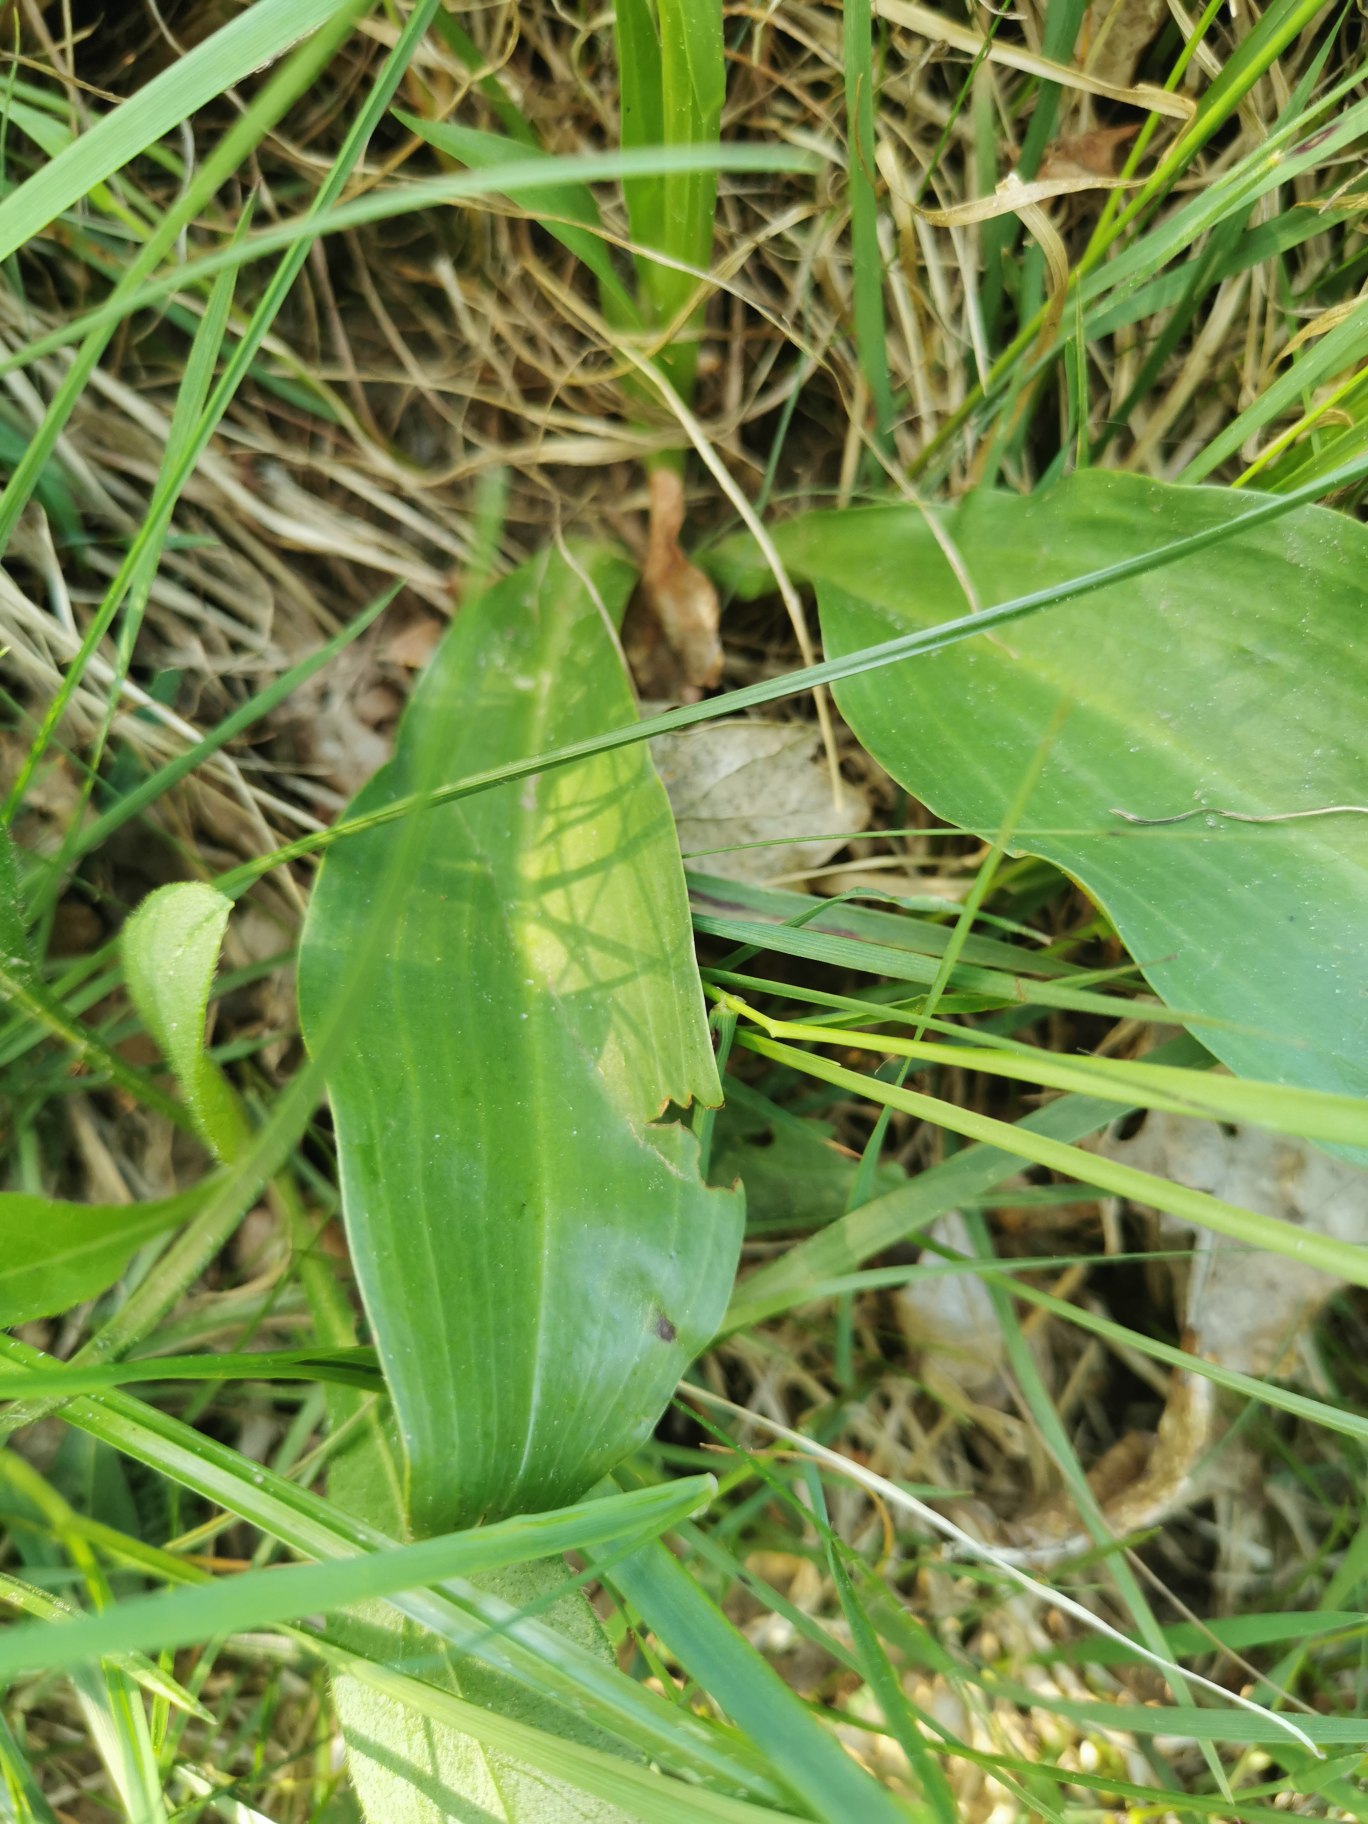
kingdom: Plantae
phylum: Tracheophyta
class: Liliopsida
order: Asparagales
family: Orchidaceae
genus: Platanthera
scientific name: Platanthera
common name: Gøgeliljeslægten
